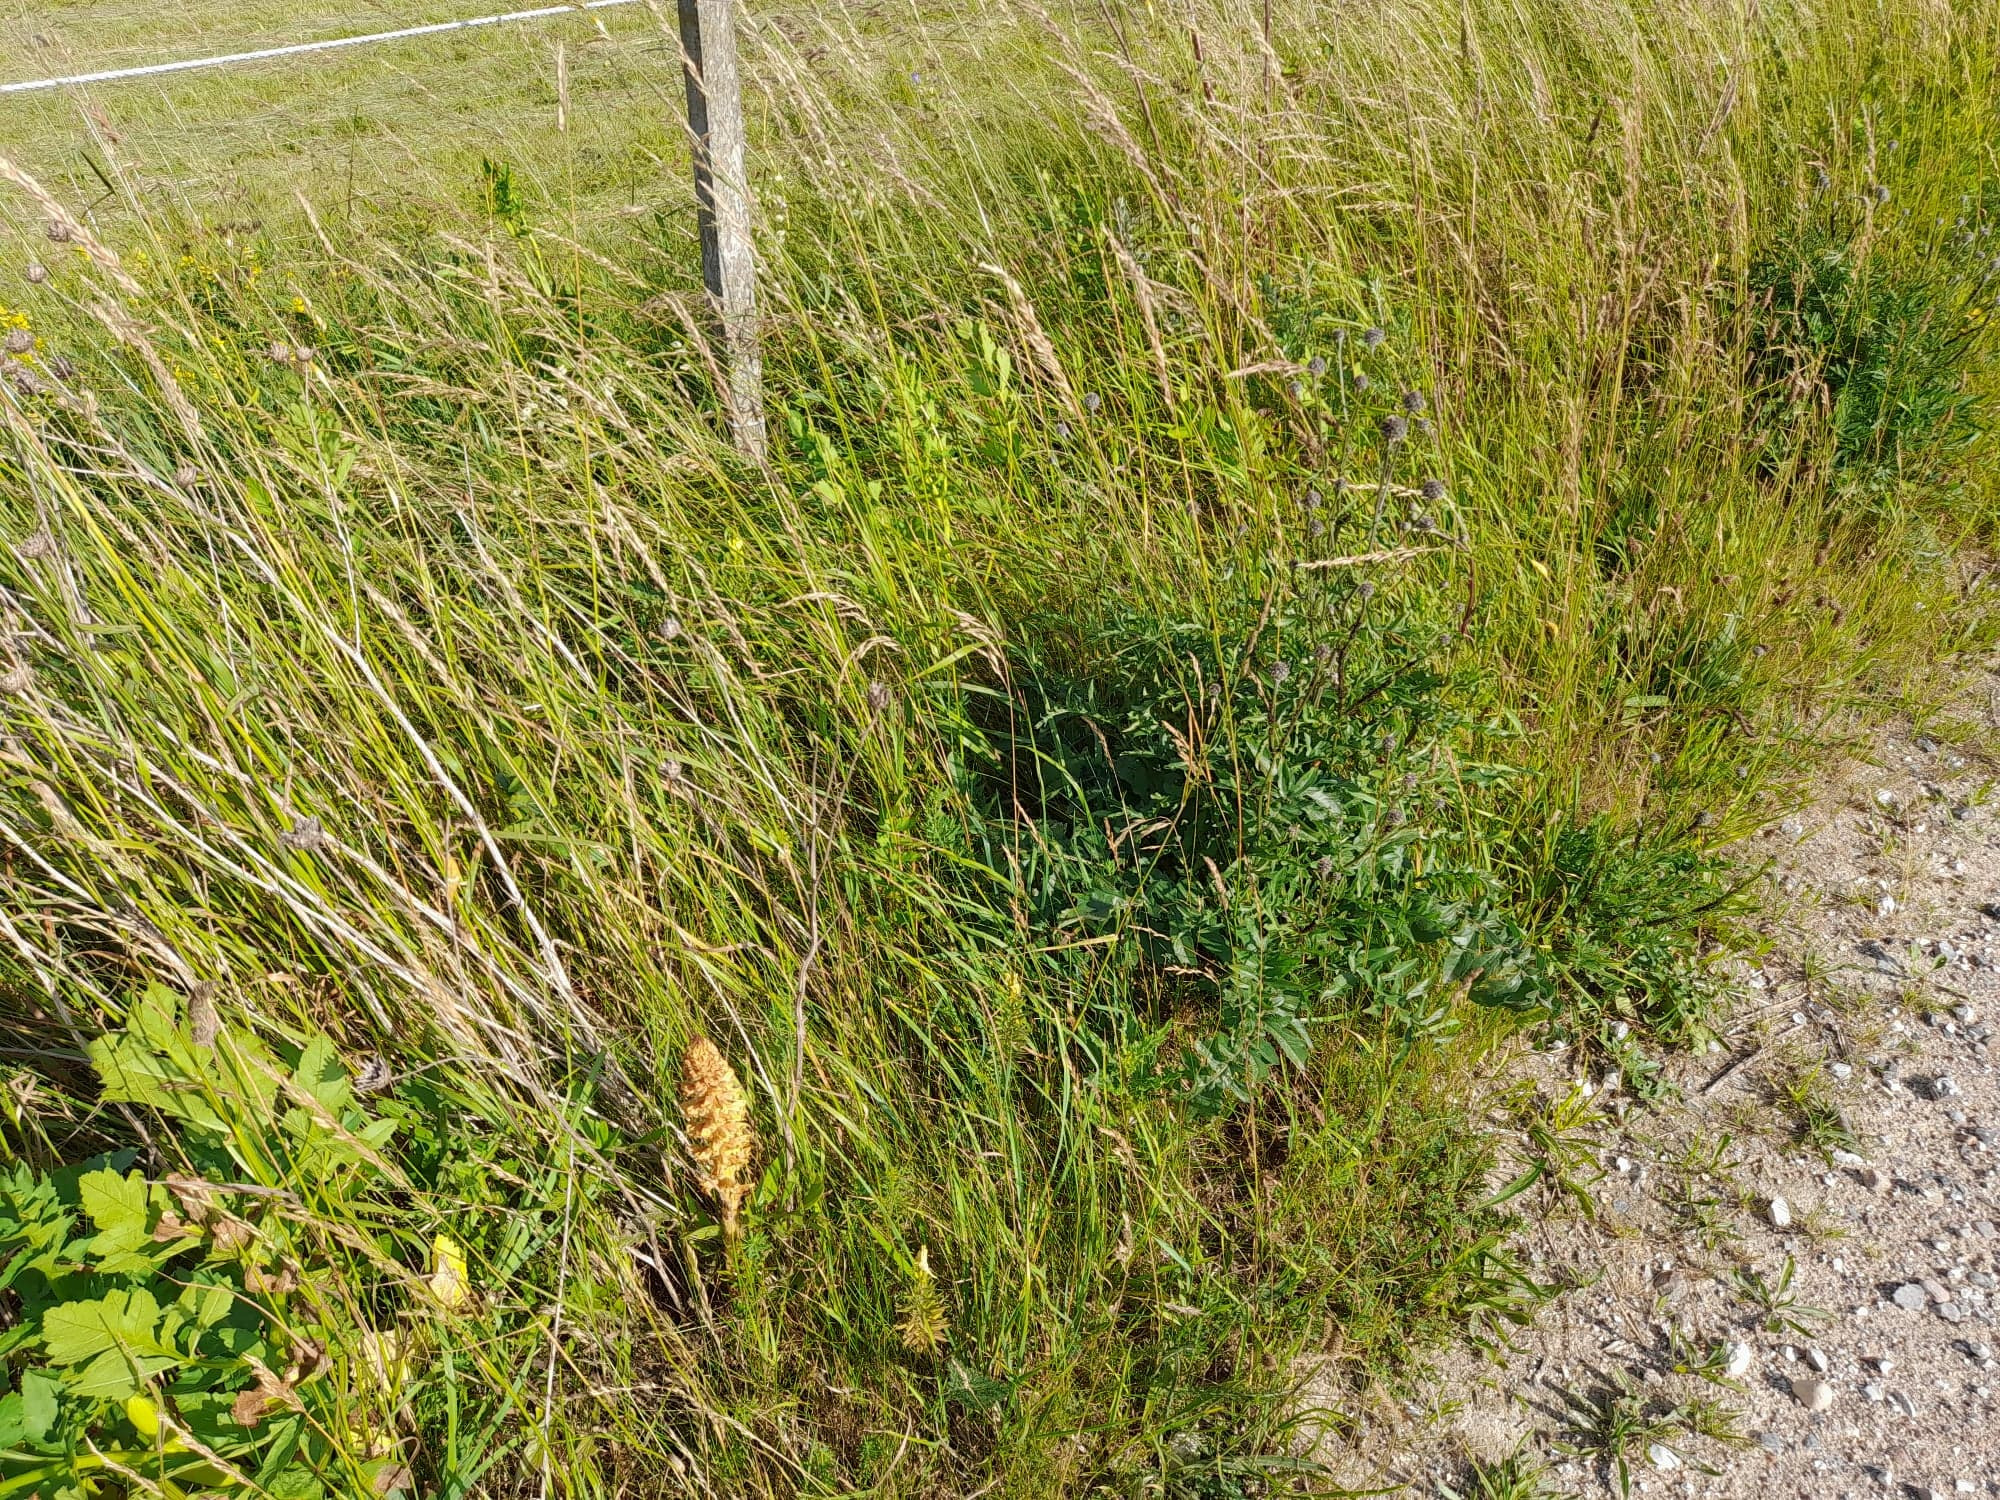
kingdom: Plantae
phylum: Tracheophyta
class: Magnoliopsida
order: Lamiales
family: Orobanchaceae
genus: Orobanche
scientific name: Orobanche elatior
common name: Stor gyvelkvæler
